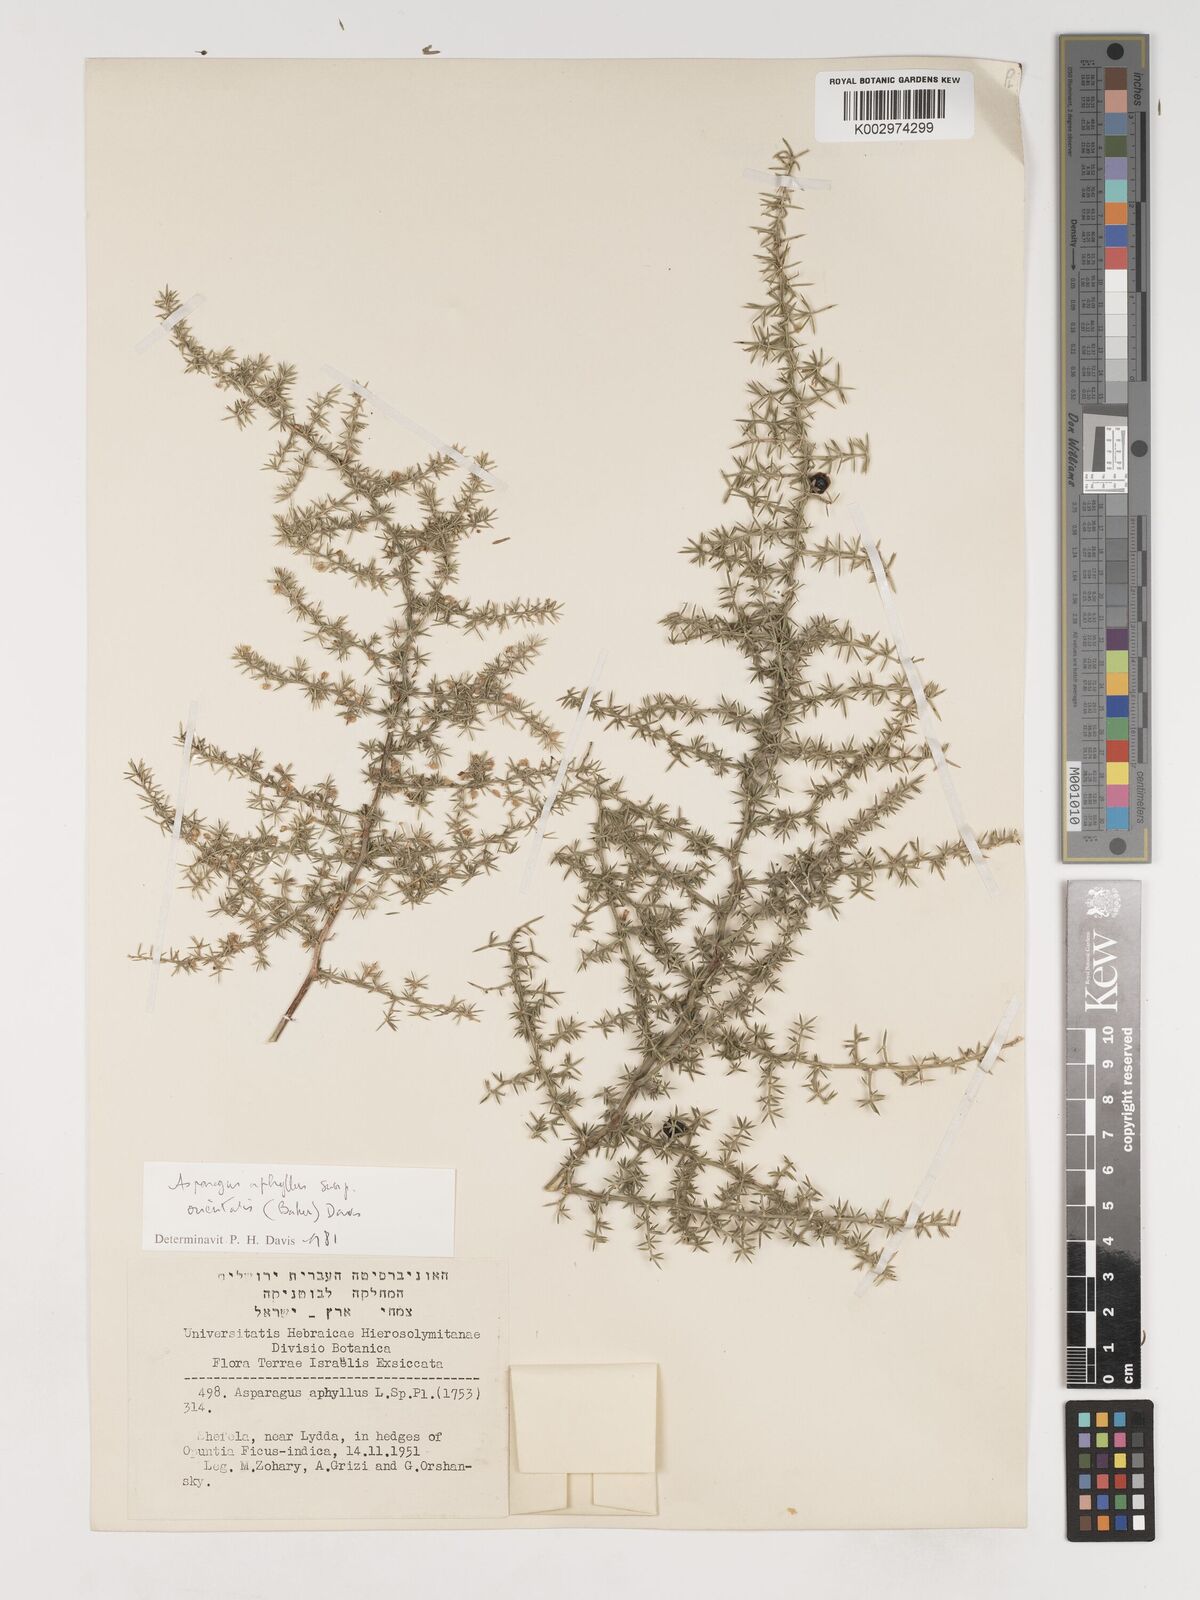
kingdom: Plantae
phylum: Tracheophyta
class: Liliopsida
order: Asparagales
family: Asparagaceae
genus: Asparagus
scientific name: Asparagus aphyllus
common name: Mediterranean asparagus
